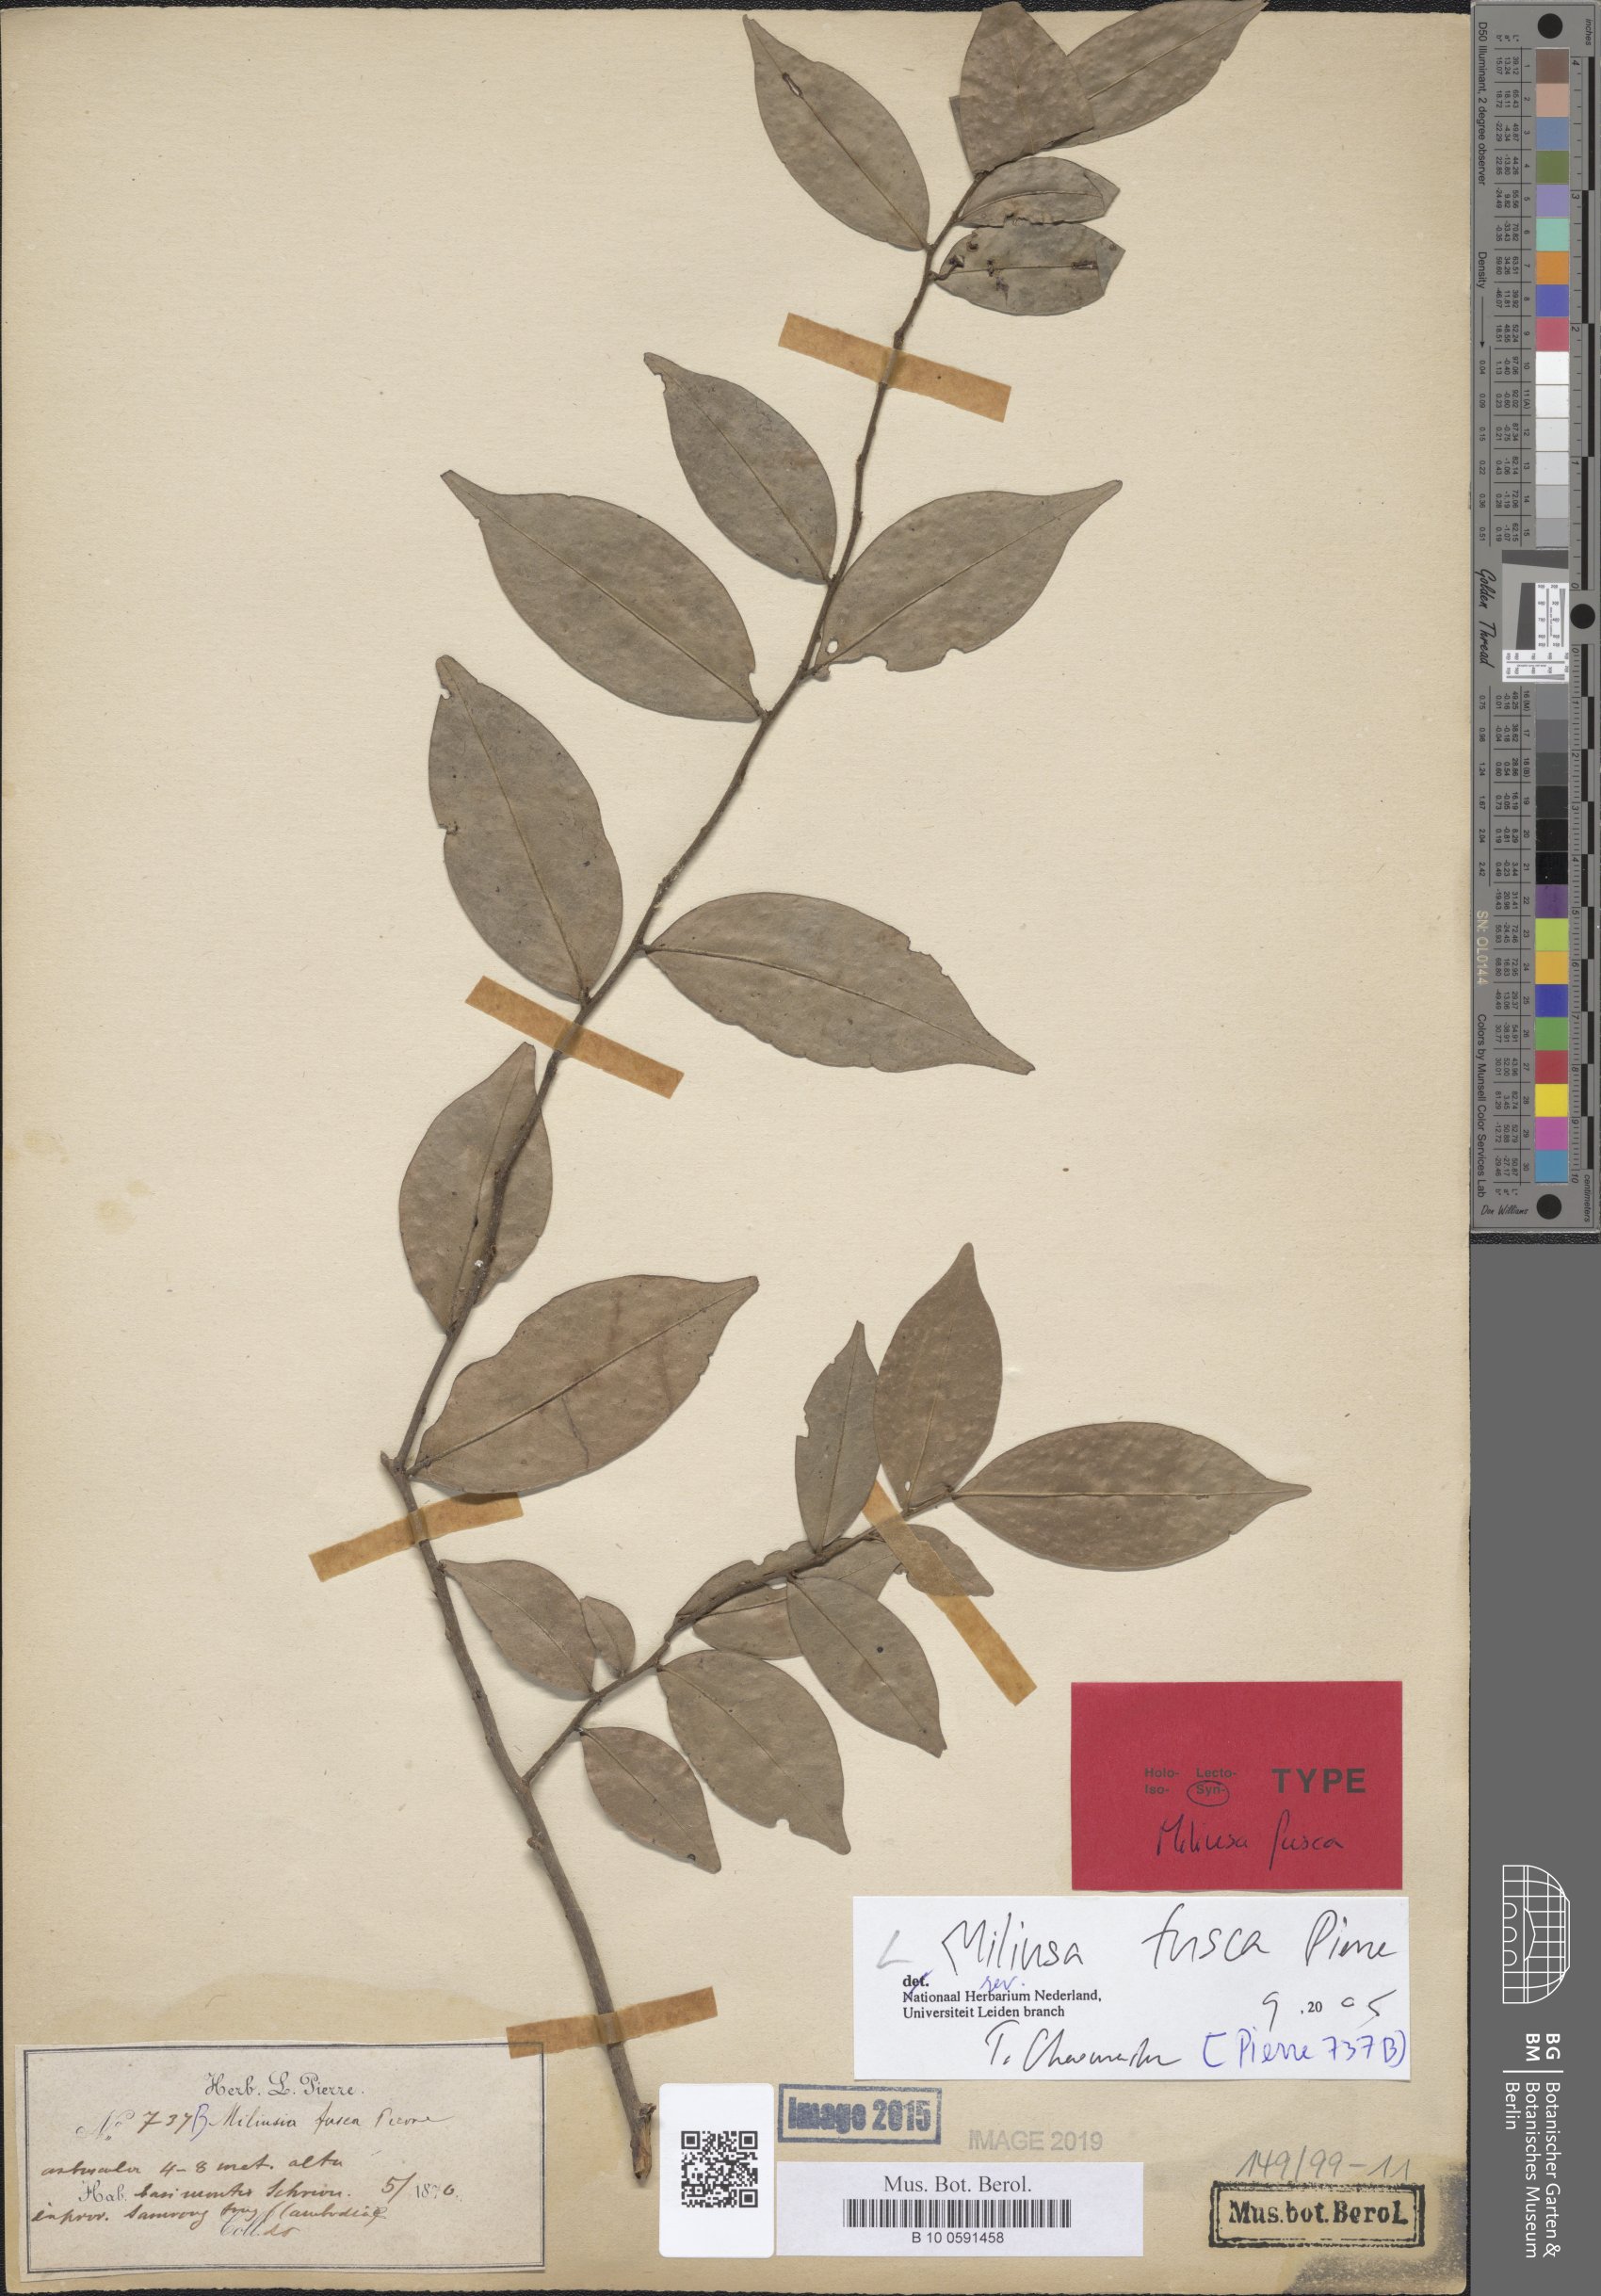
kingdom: Plantae
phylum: Tracheophyta
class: Magnoliopsida
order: Magnoliales
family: Annonaceae
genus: Miliusa
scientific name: Miliusa fusca
